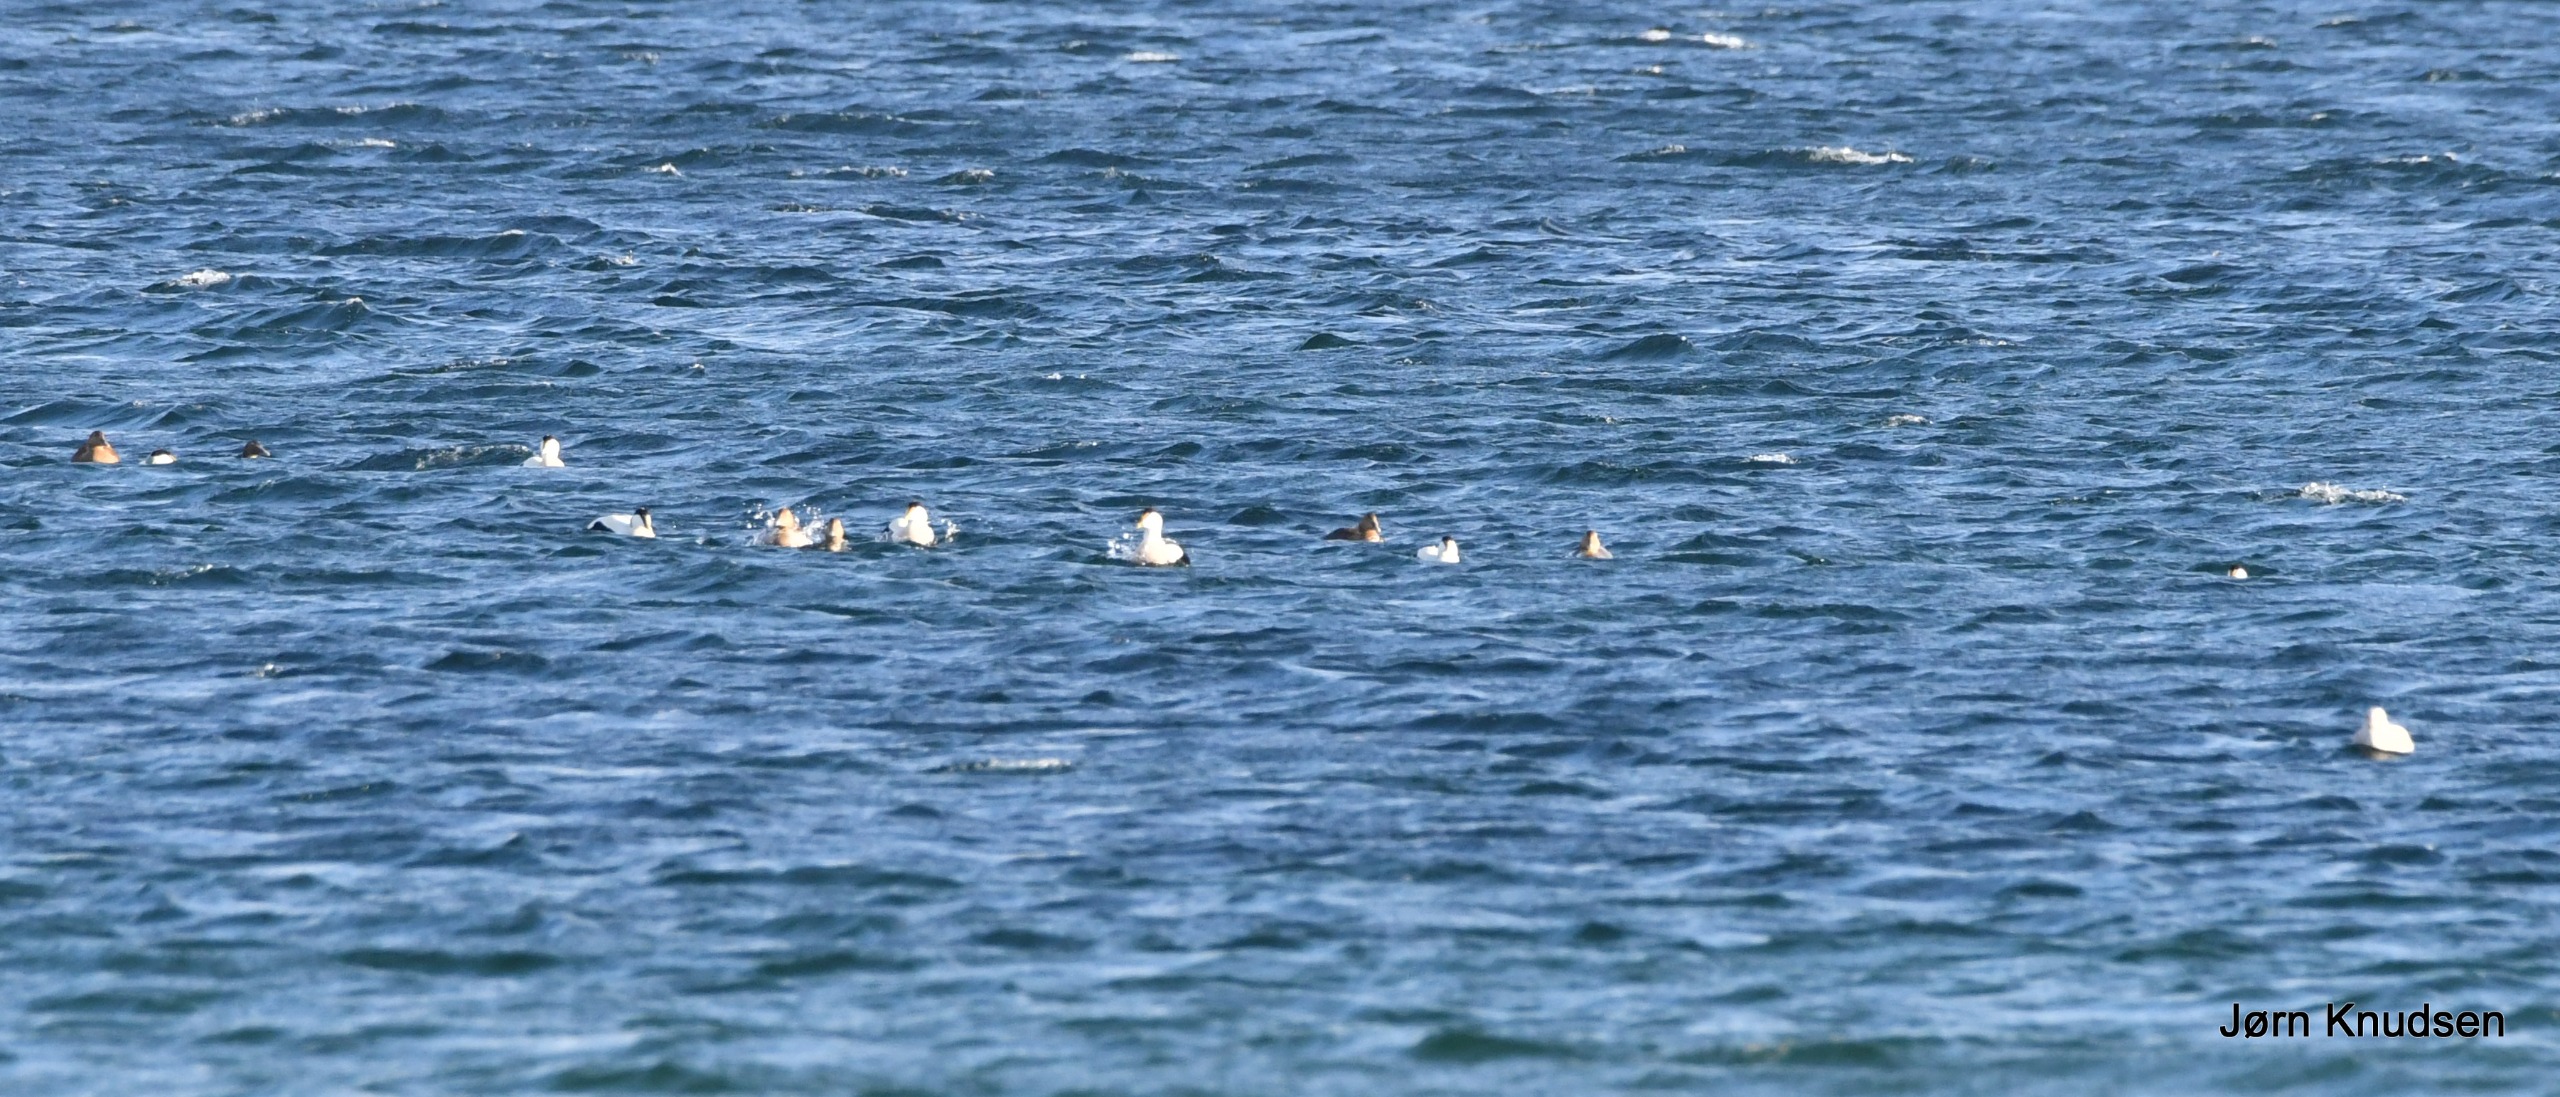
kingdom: Animalia
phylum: Chordata
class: Aves
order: Anseriformes
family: Anatidae
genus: Somateria
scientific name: Somateria mollissima
